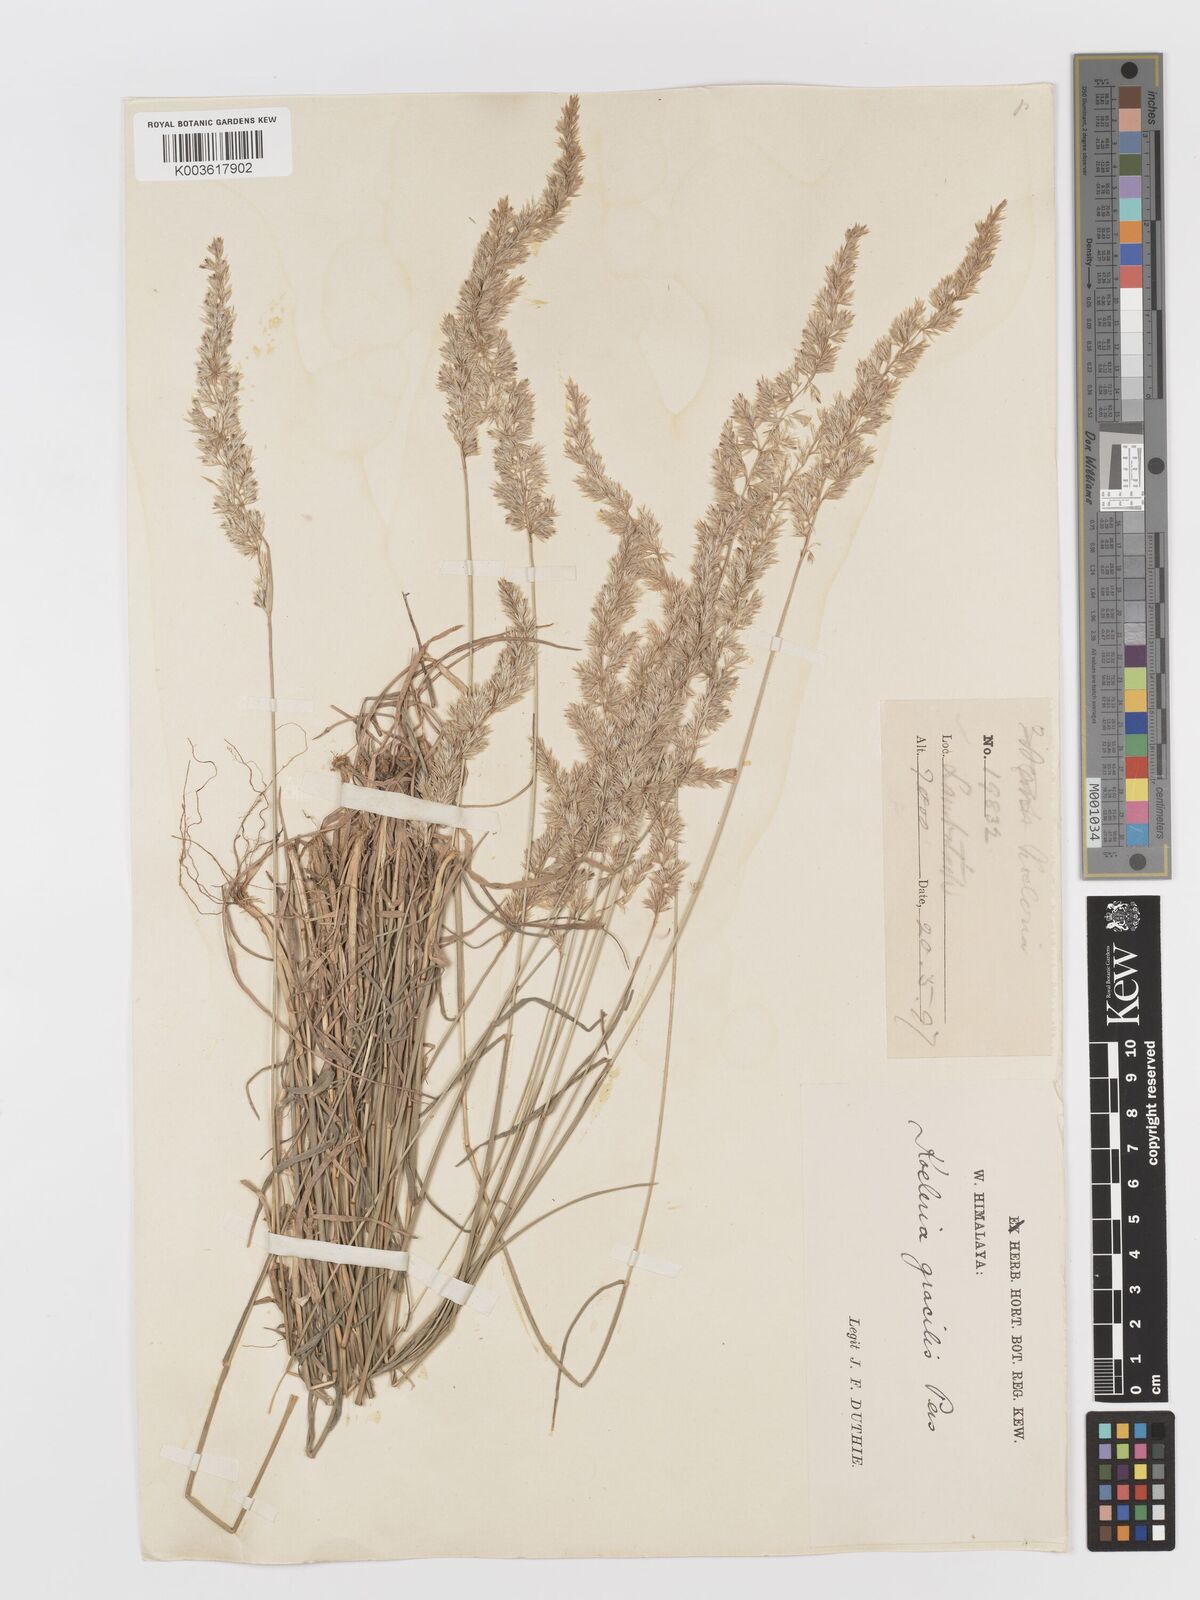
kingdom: Plantae
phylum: Tracheophyta
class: Liliopsida
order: Poales
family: Poaceae
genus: Koeleria
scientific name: Koeleria
